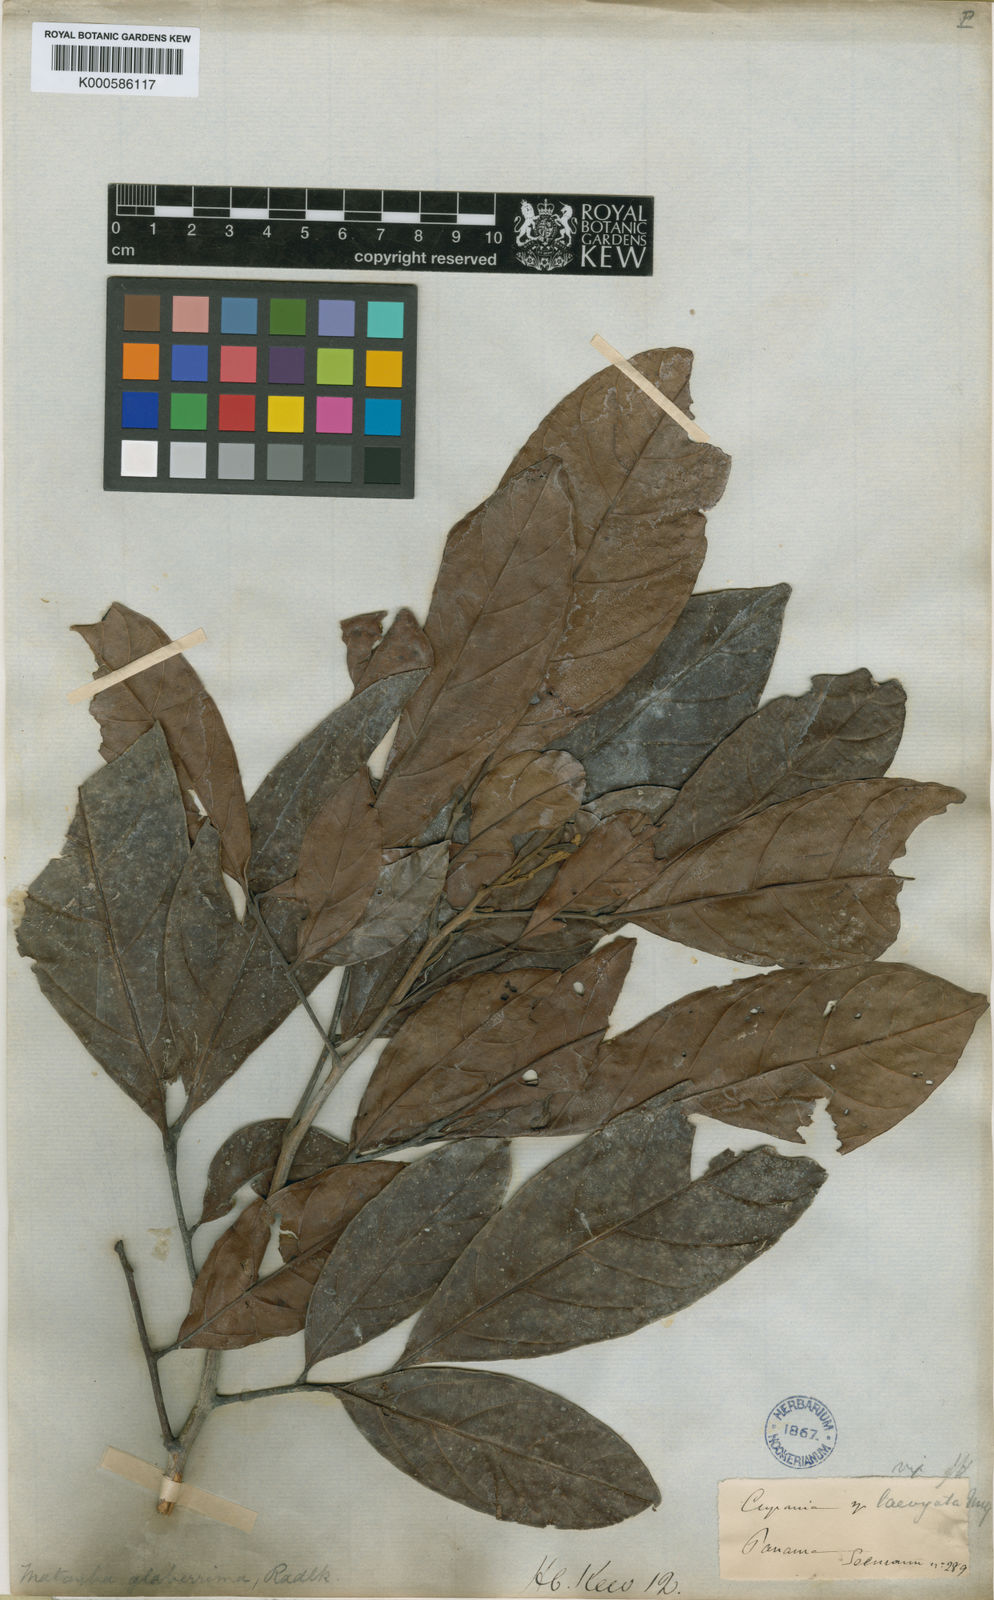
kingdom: Plantae
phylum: Tracheophyta
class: Magnoliopsida
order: Sapindales
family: Sapindaceae
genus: Matayba
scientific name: Matayba glaberrima
